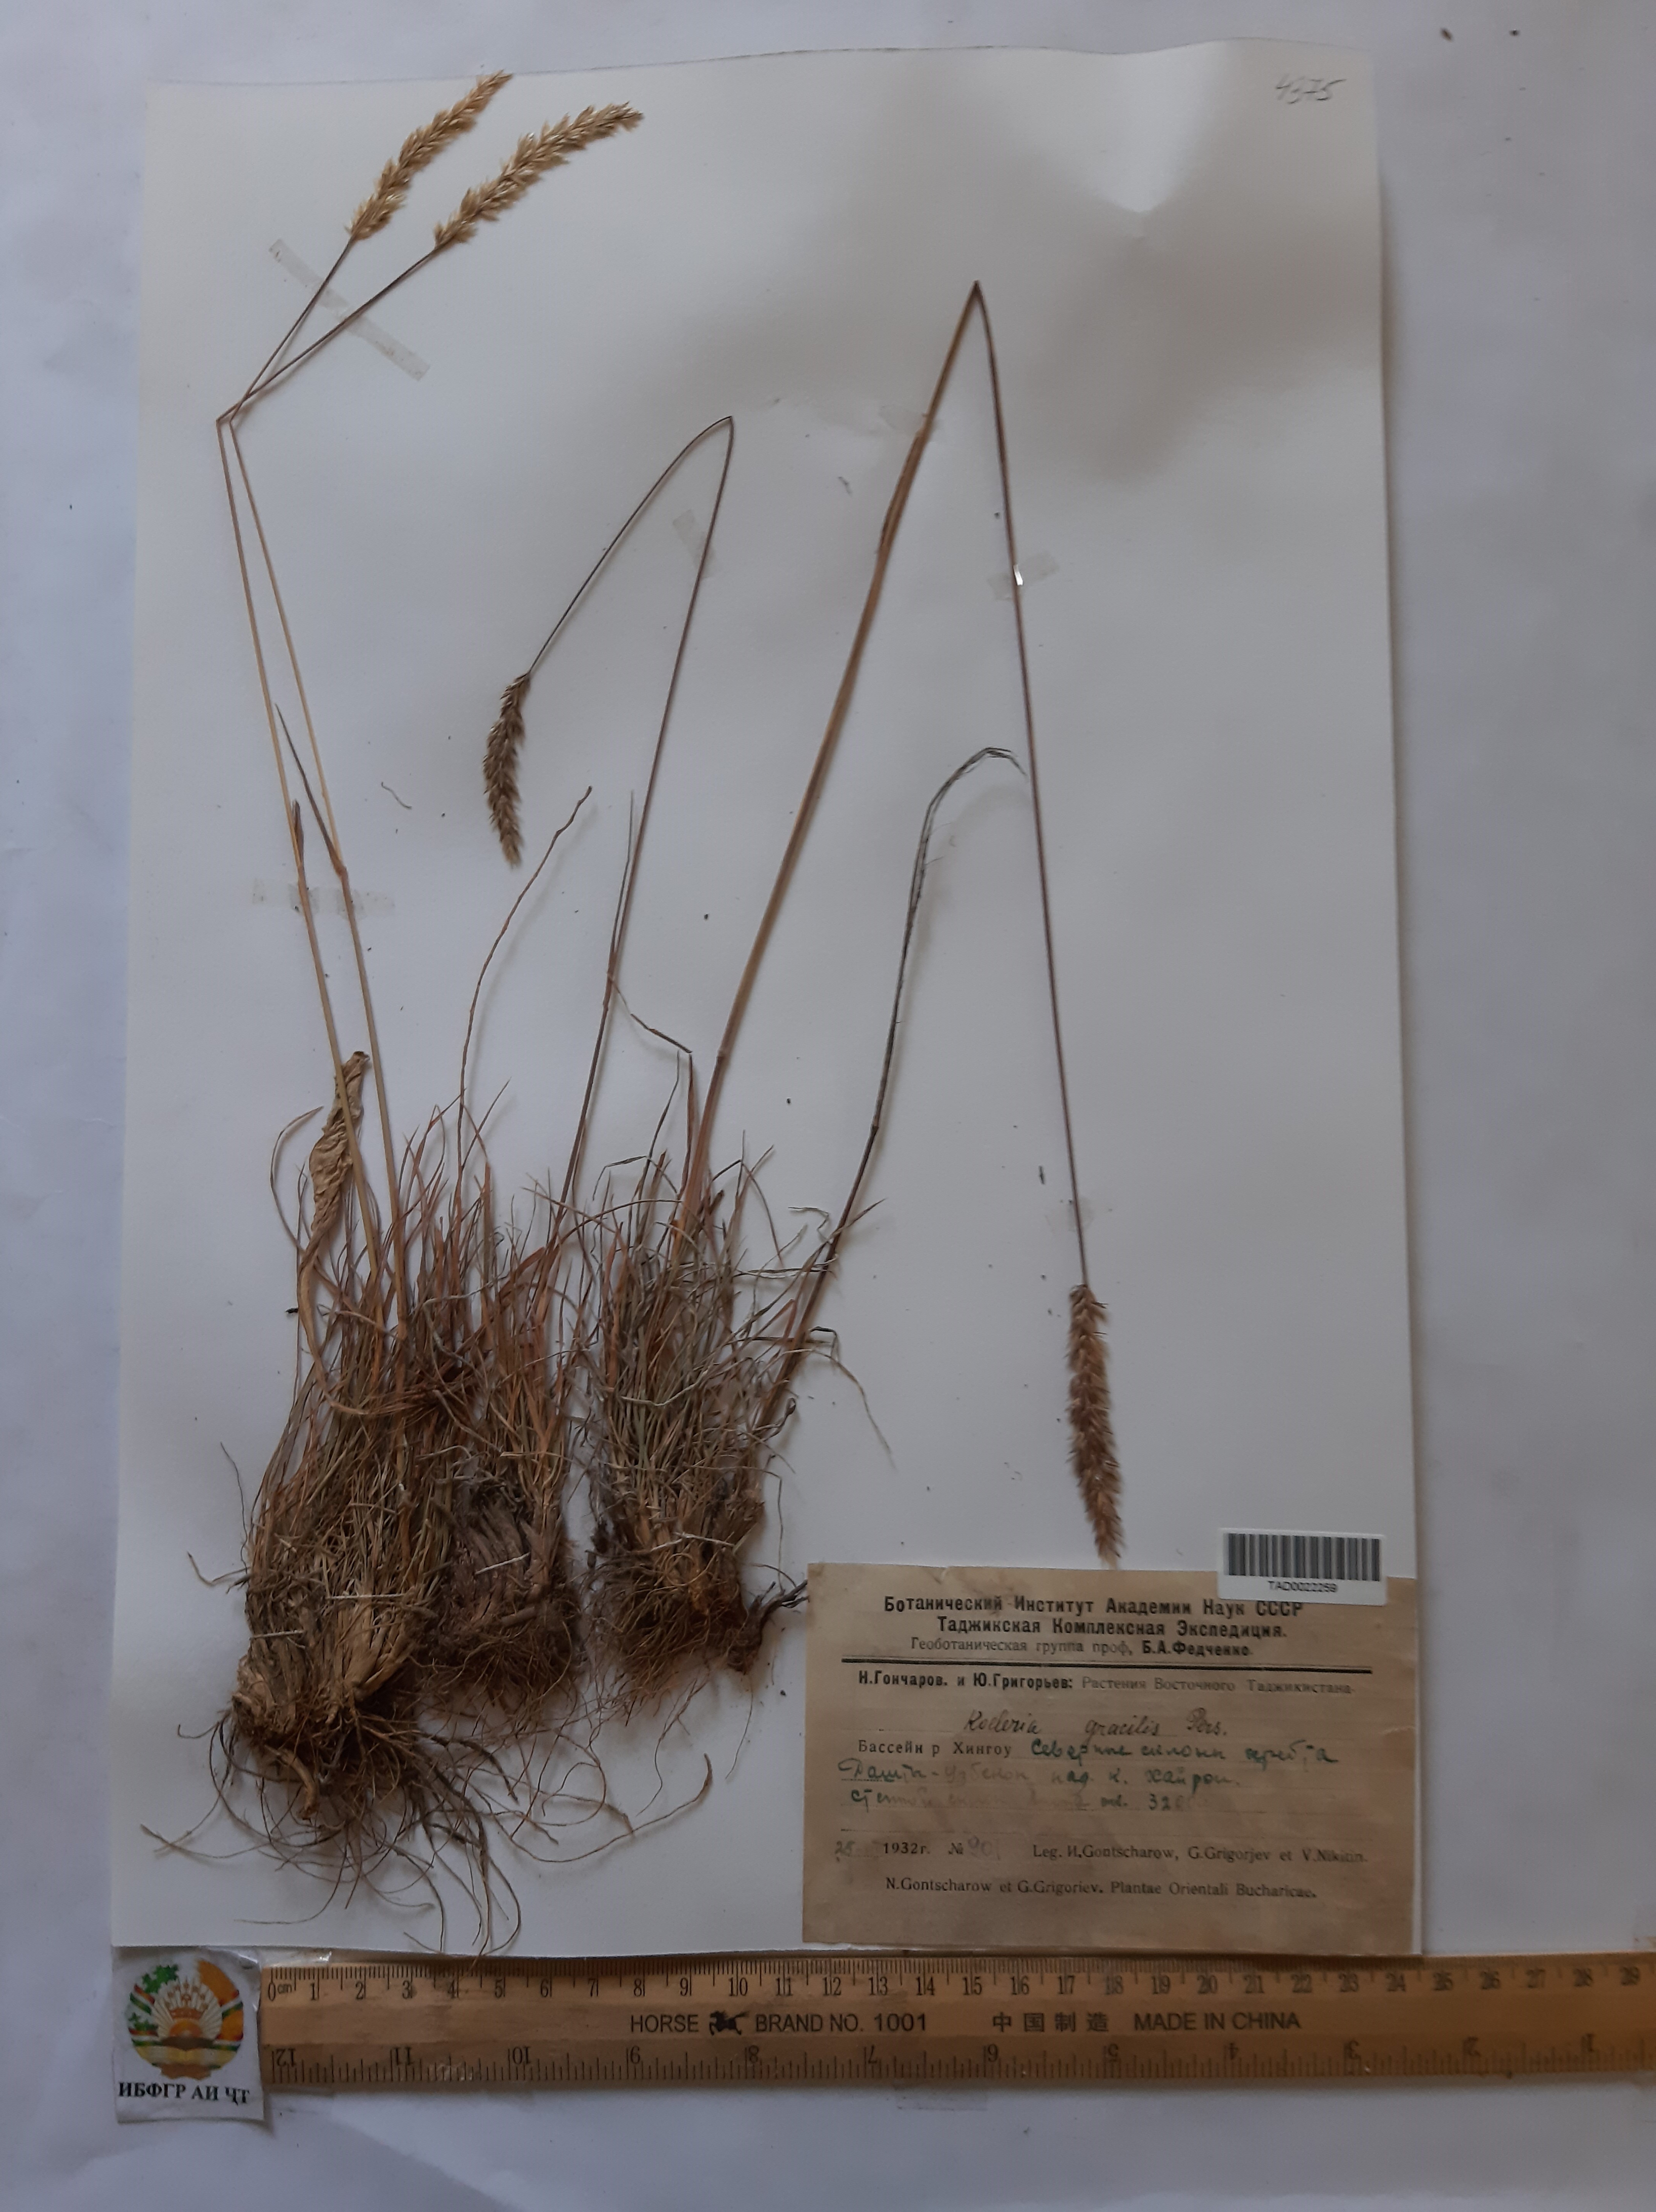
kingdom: Plantae
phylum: Tracheophyta
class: Liliopsida
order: Poales
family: Poaceae
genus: Koeleria
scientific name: Koeleria macrantha
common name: Crested hair-grass
